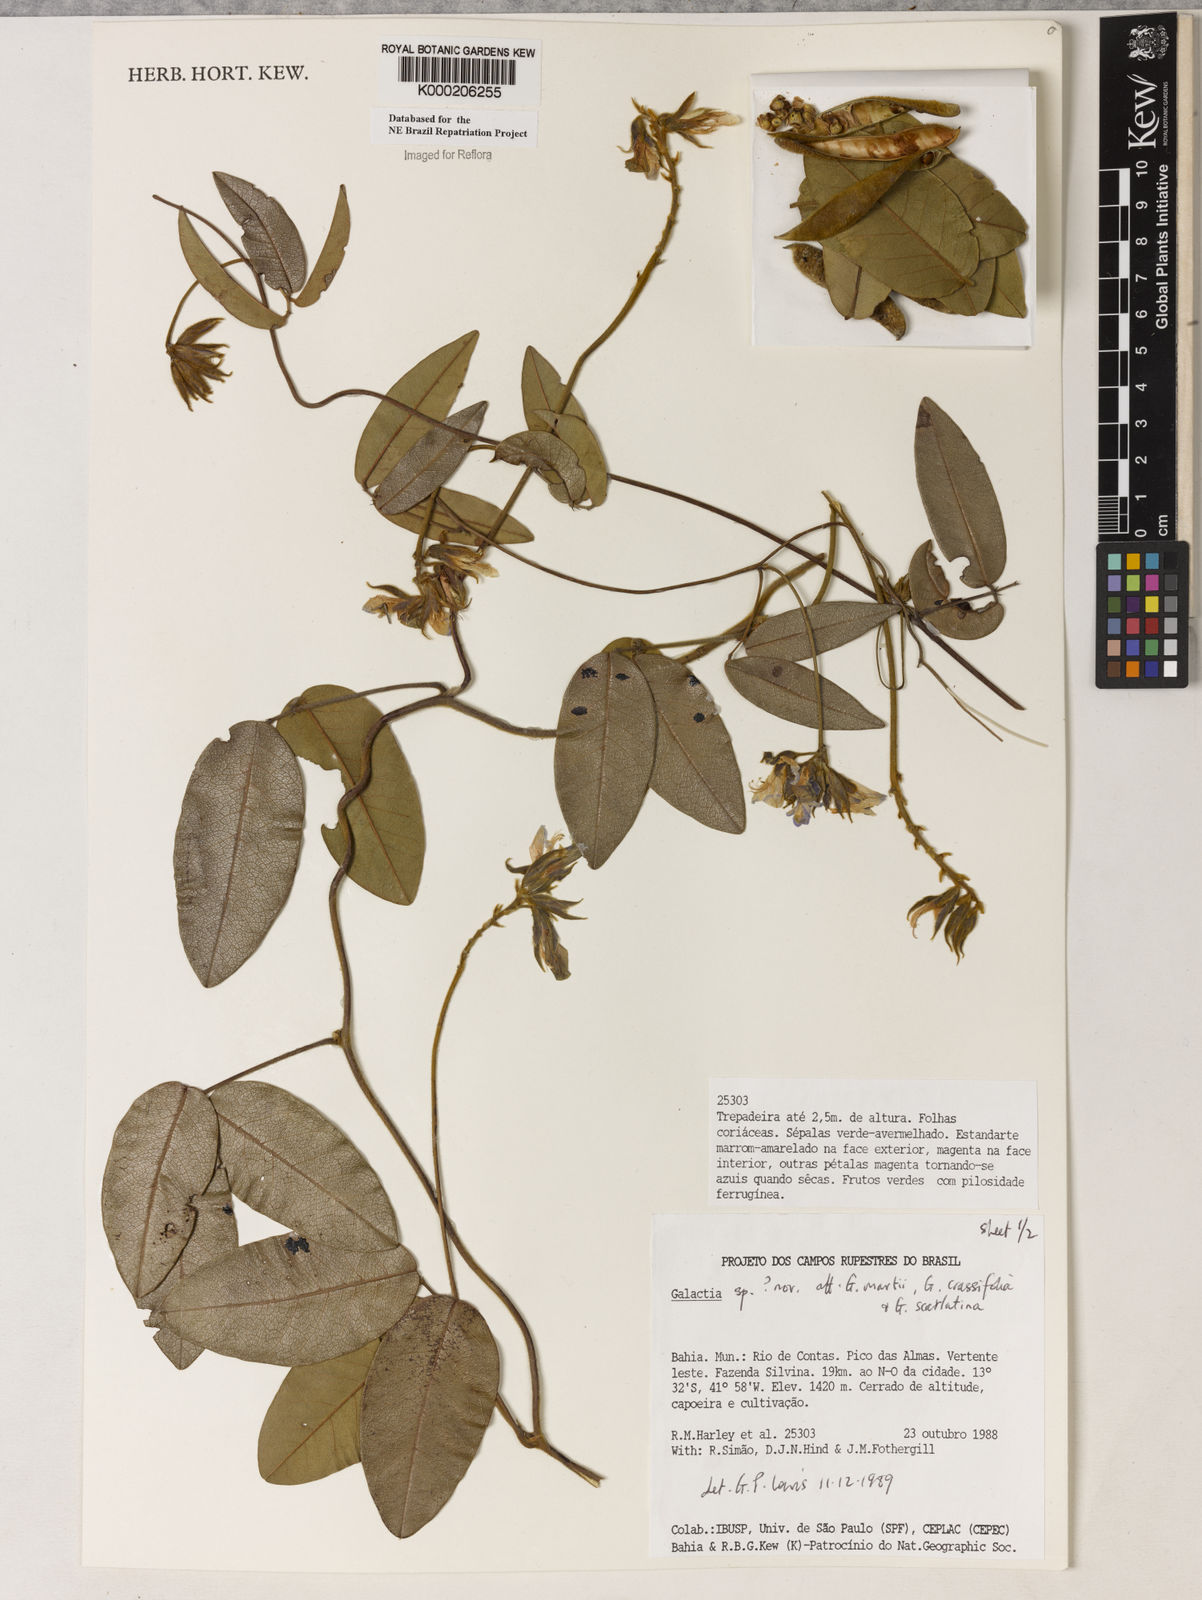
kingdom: Plantae
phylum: Tracheophyta
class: Magnoliopsida
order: Fabales
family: Fabaceae
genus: Galactia
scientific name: Galactia
